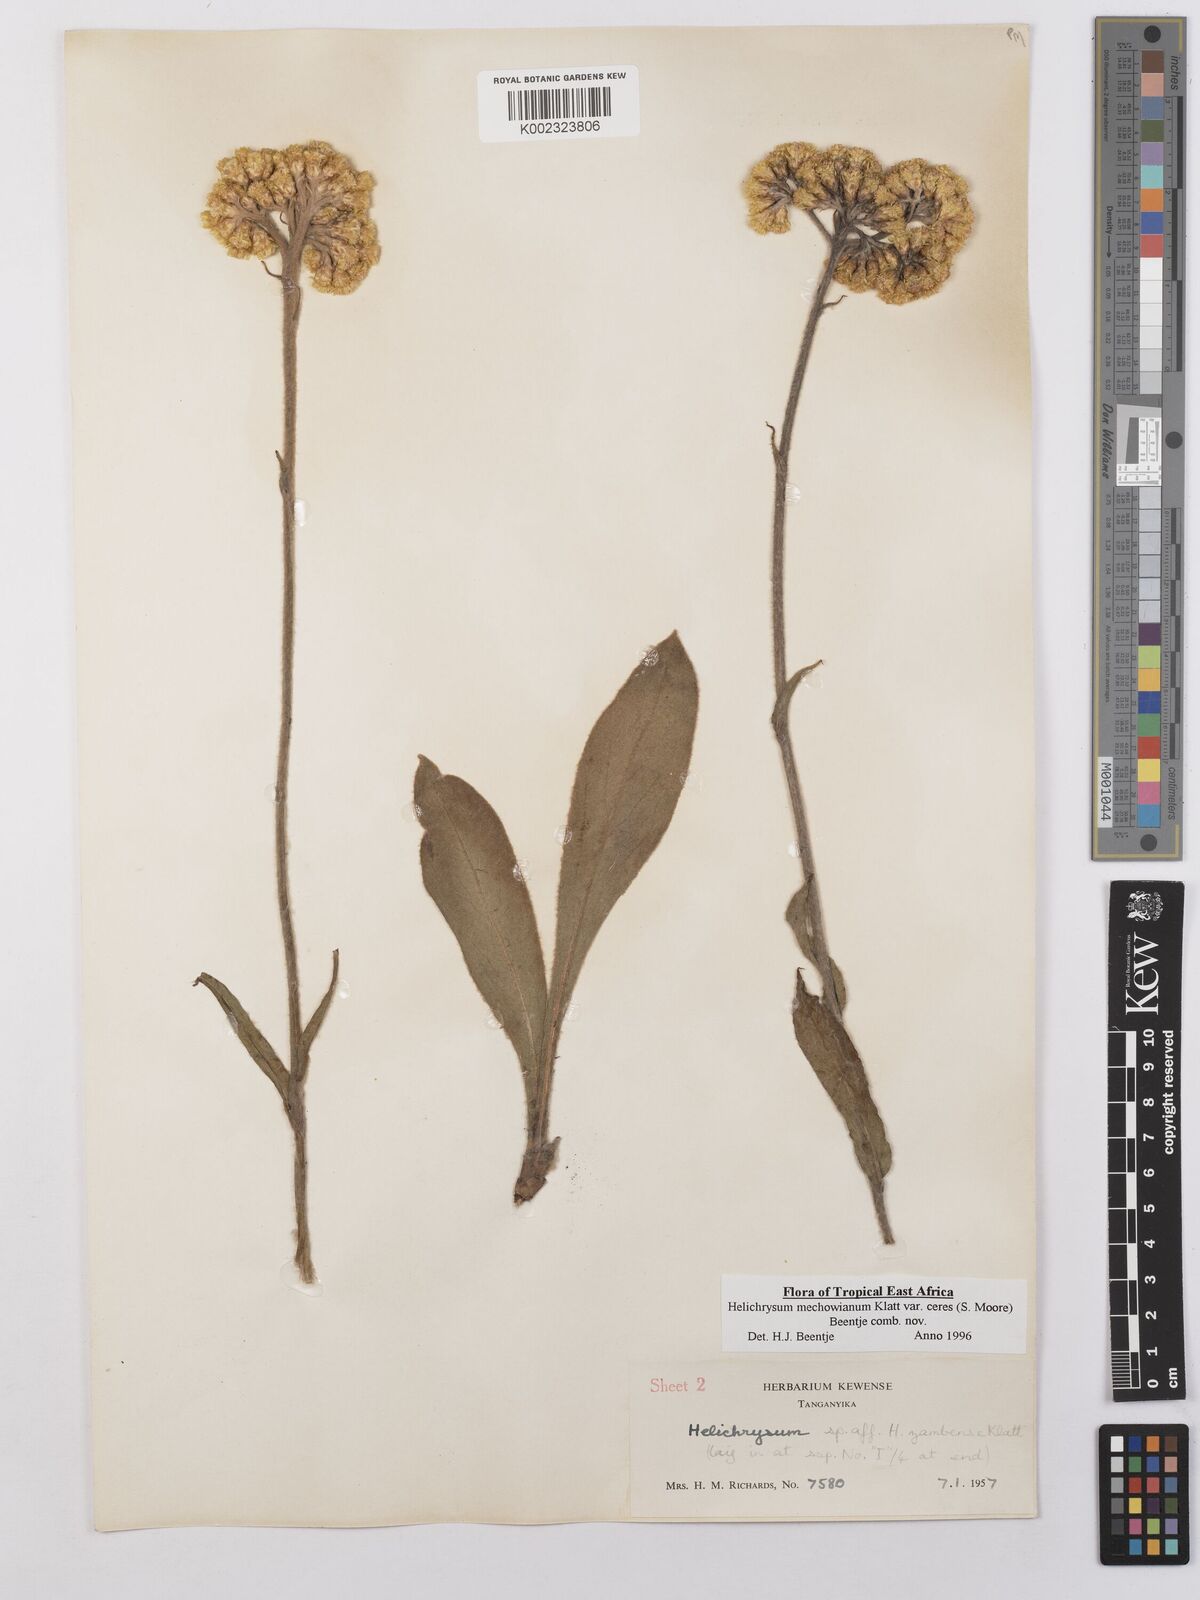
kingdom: Plantae
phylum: Tracheophyta
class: Magnoliopsida
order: Asterales
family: Asteraceae
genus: Helichrysum
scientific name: Helichrysum mechowianum
